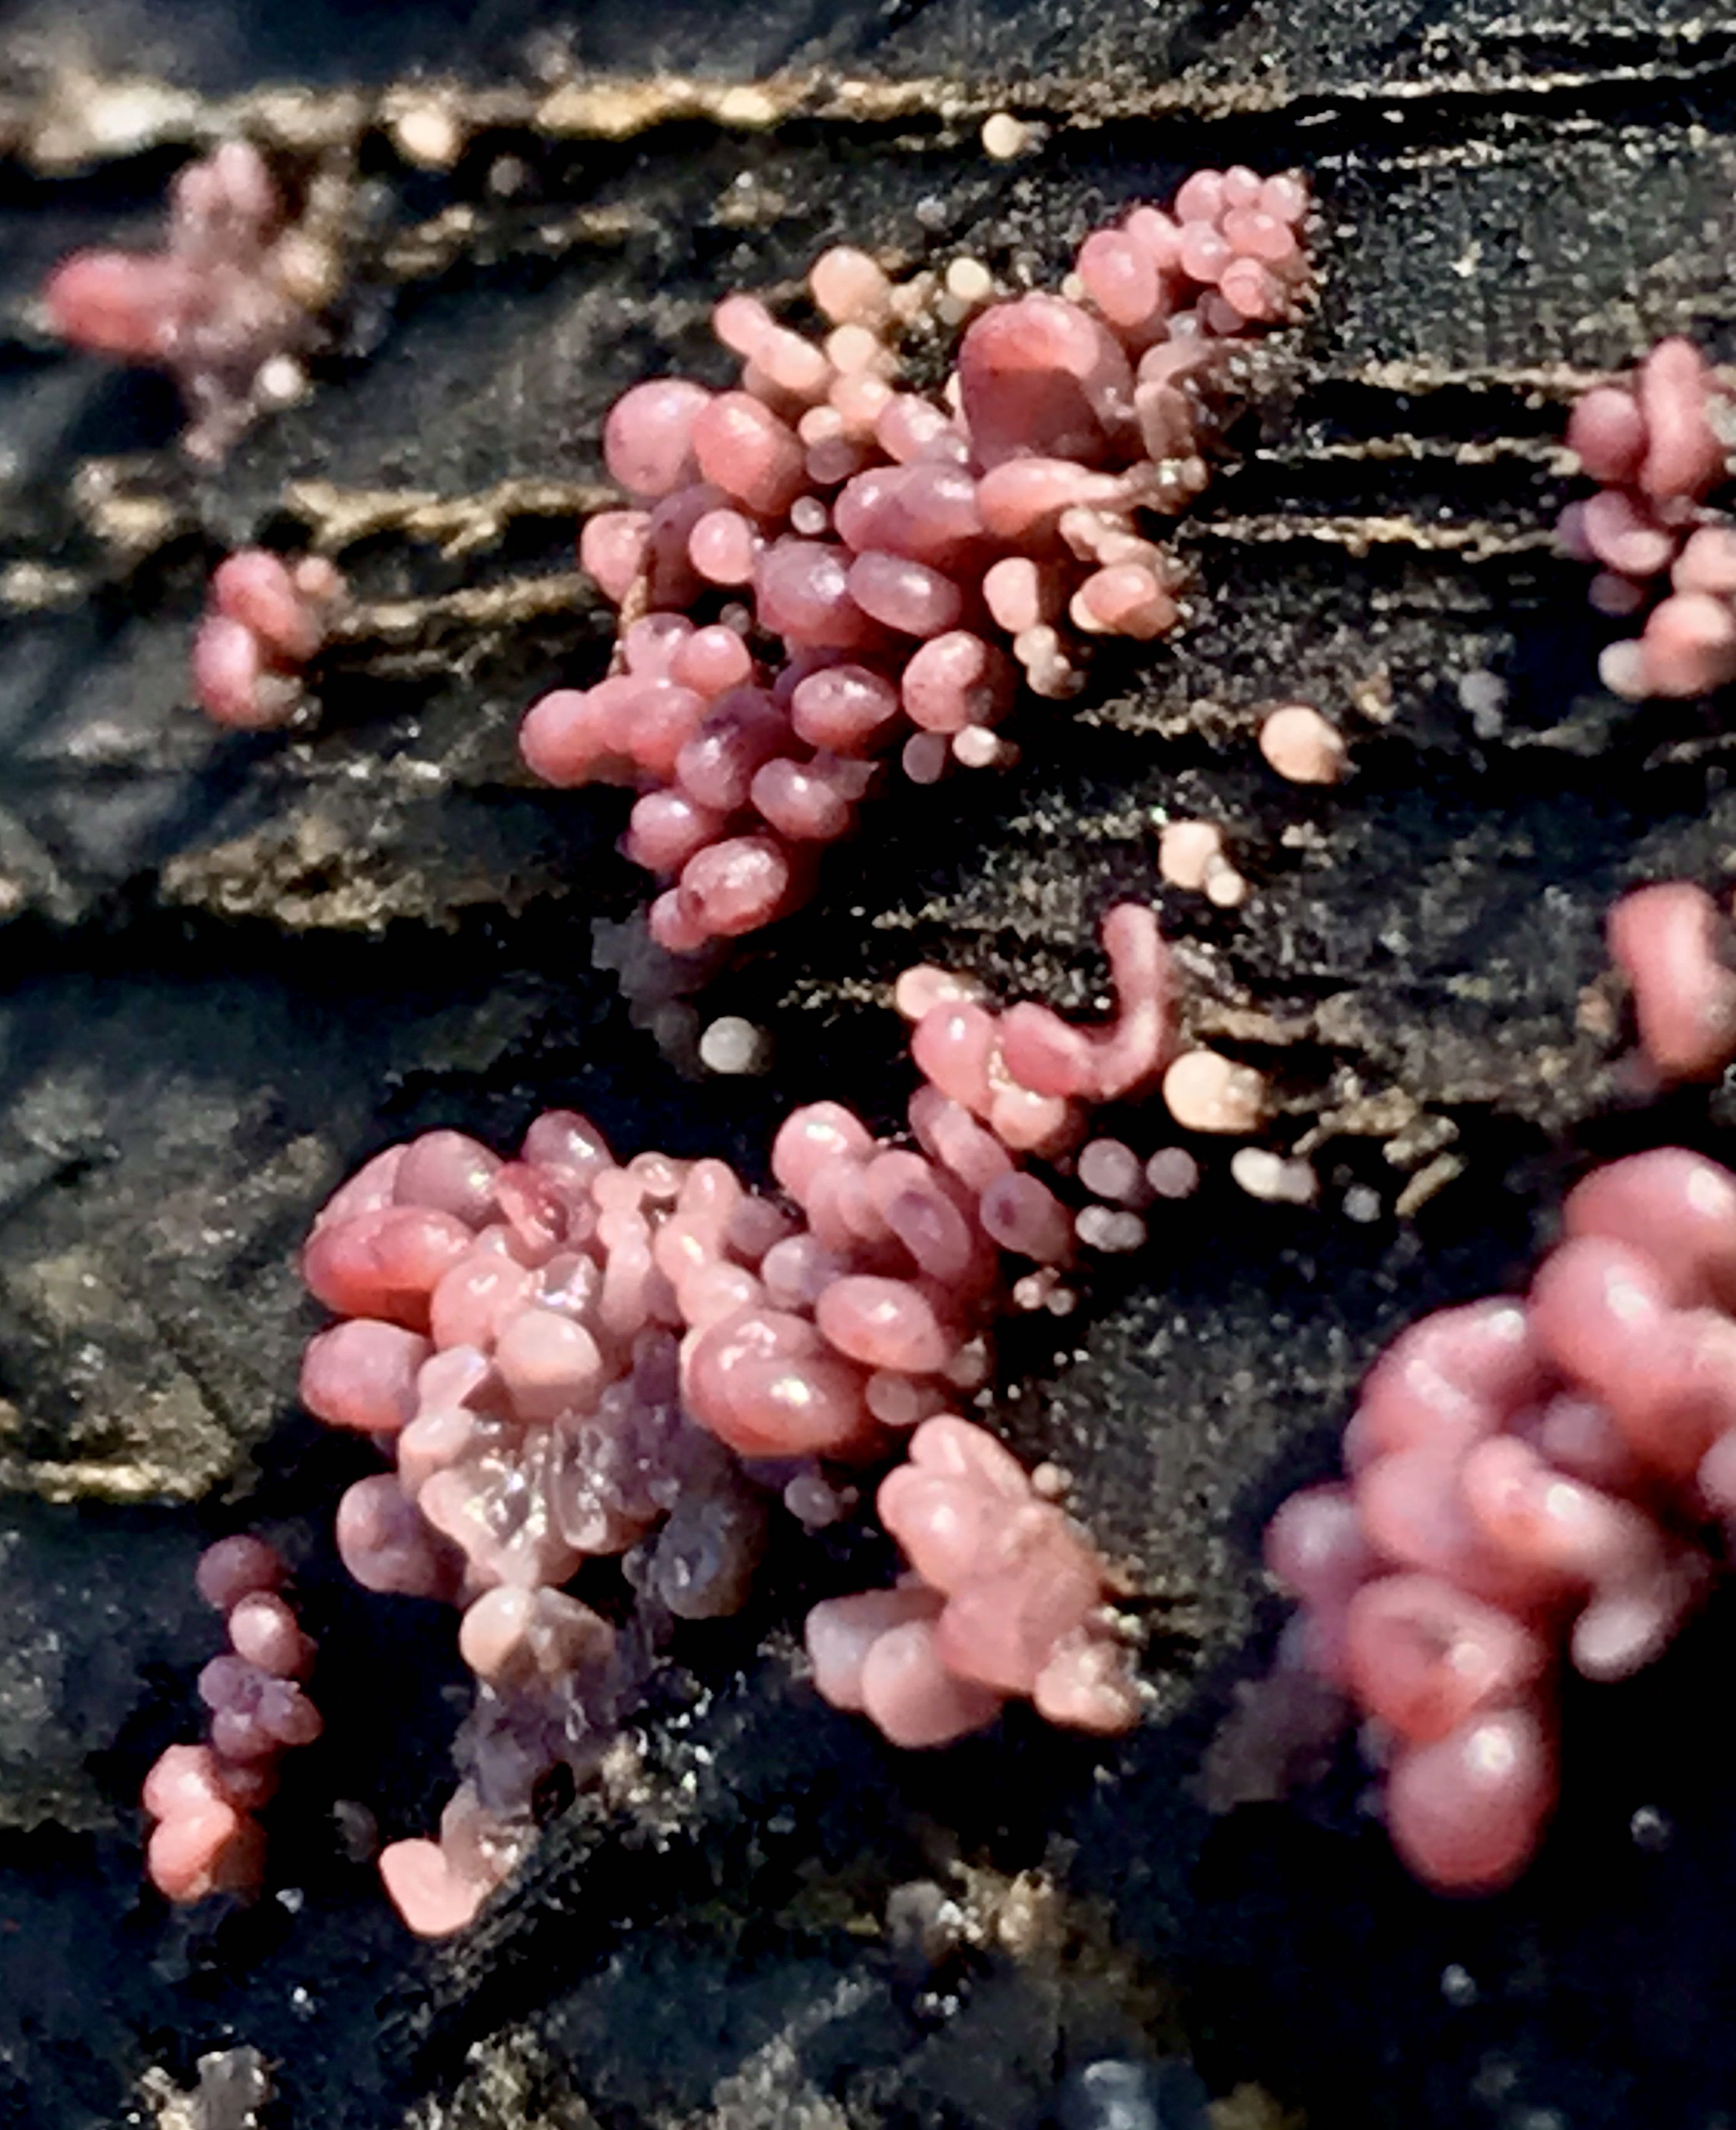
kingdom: Fungi
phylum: Ascomycota
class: Leotiomycetes
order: Helotiales
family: Gelatinodiscaceae
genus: Ascocoryne
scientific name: Ascocoryne sarcoides
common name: rødlilla sejskive
